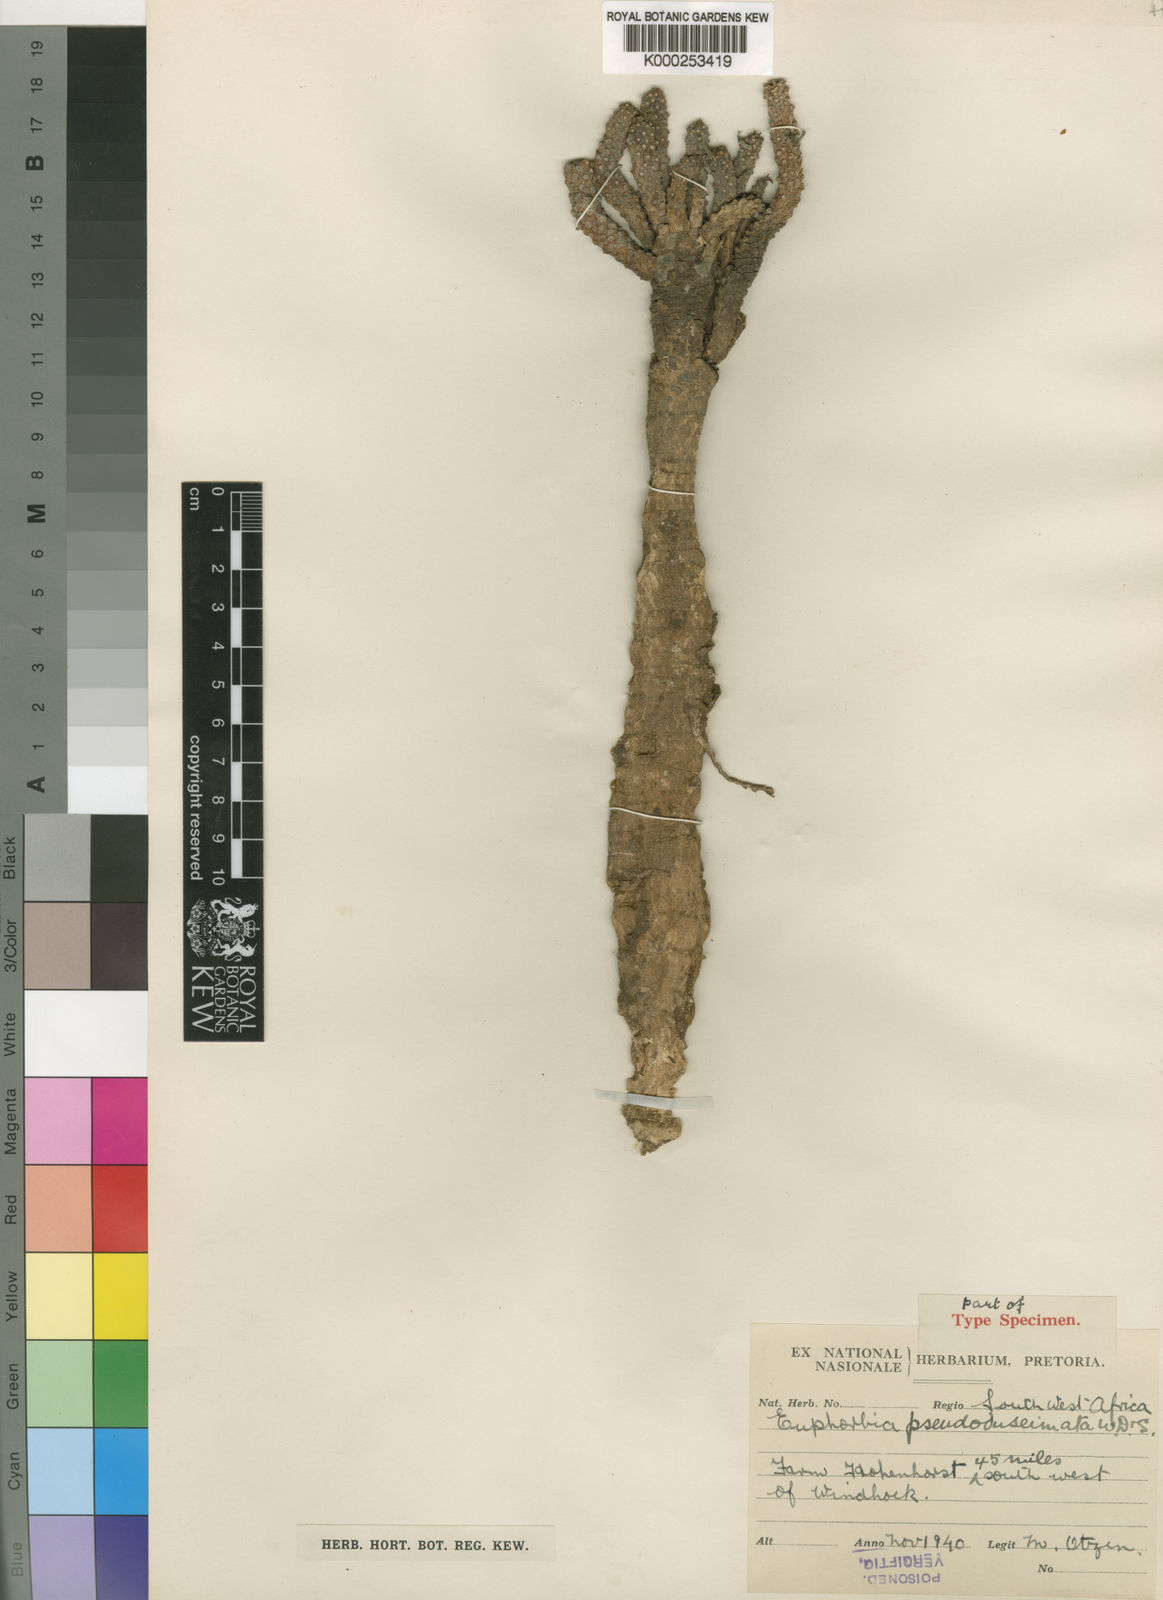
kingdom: Plantae
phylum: Tracheophyta
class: Magnoliopsida
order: Malpighiales
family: Euphorbiaceae
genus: Euphorbia
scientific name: Euphorbia
